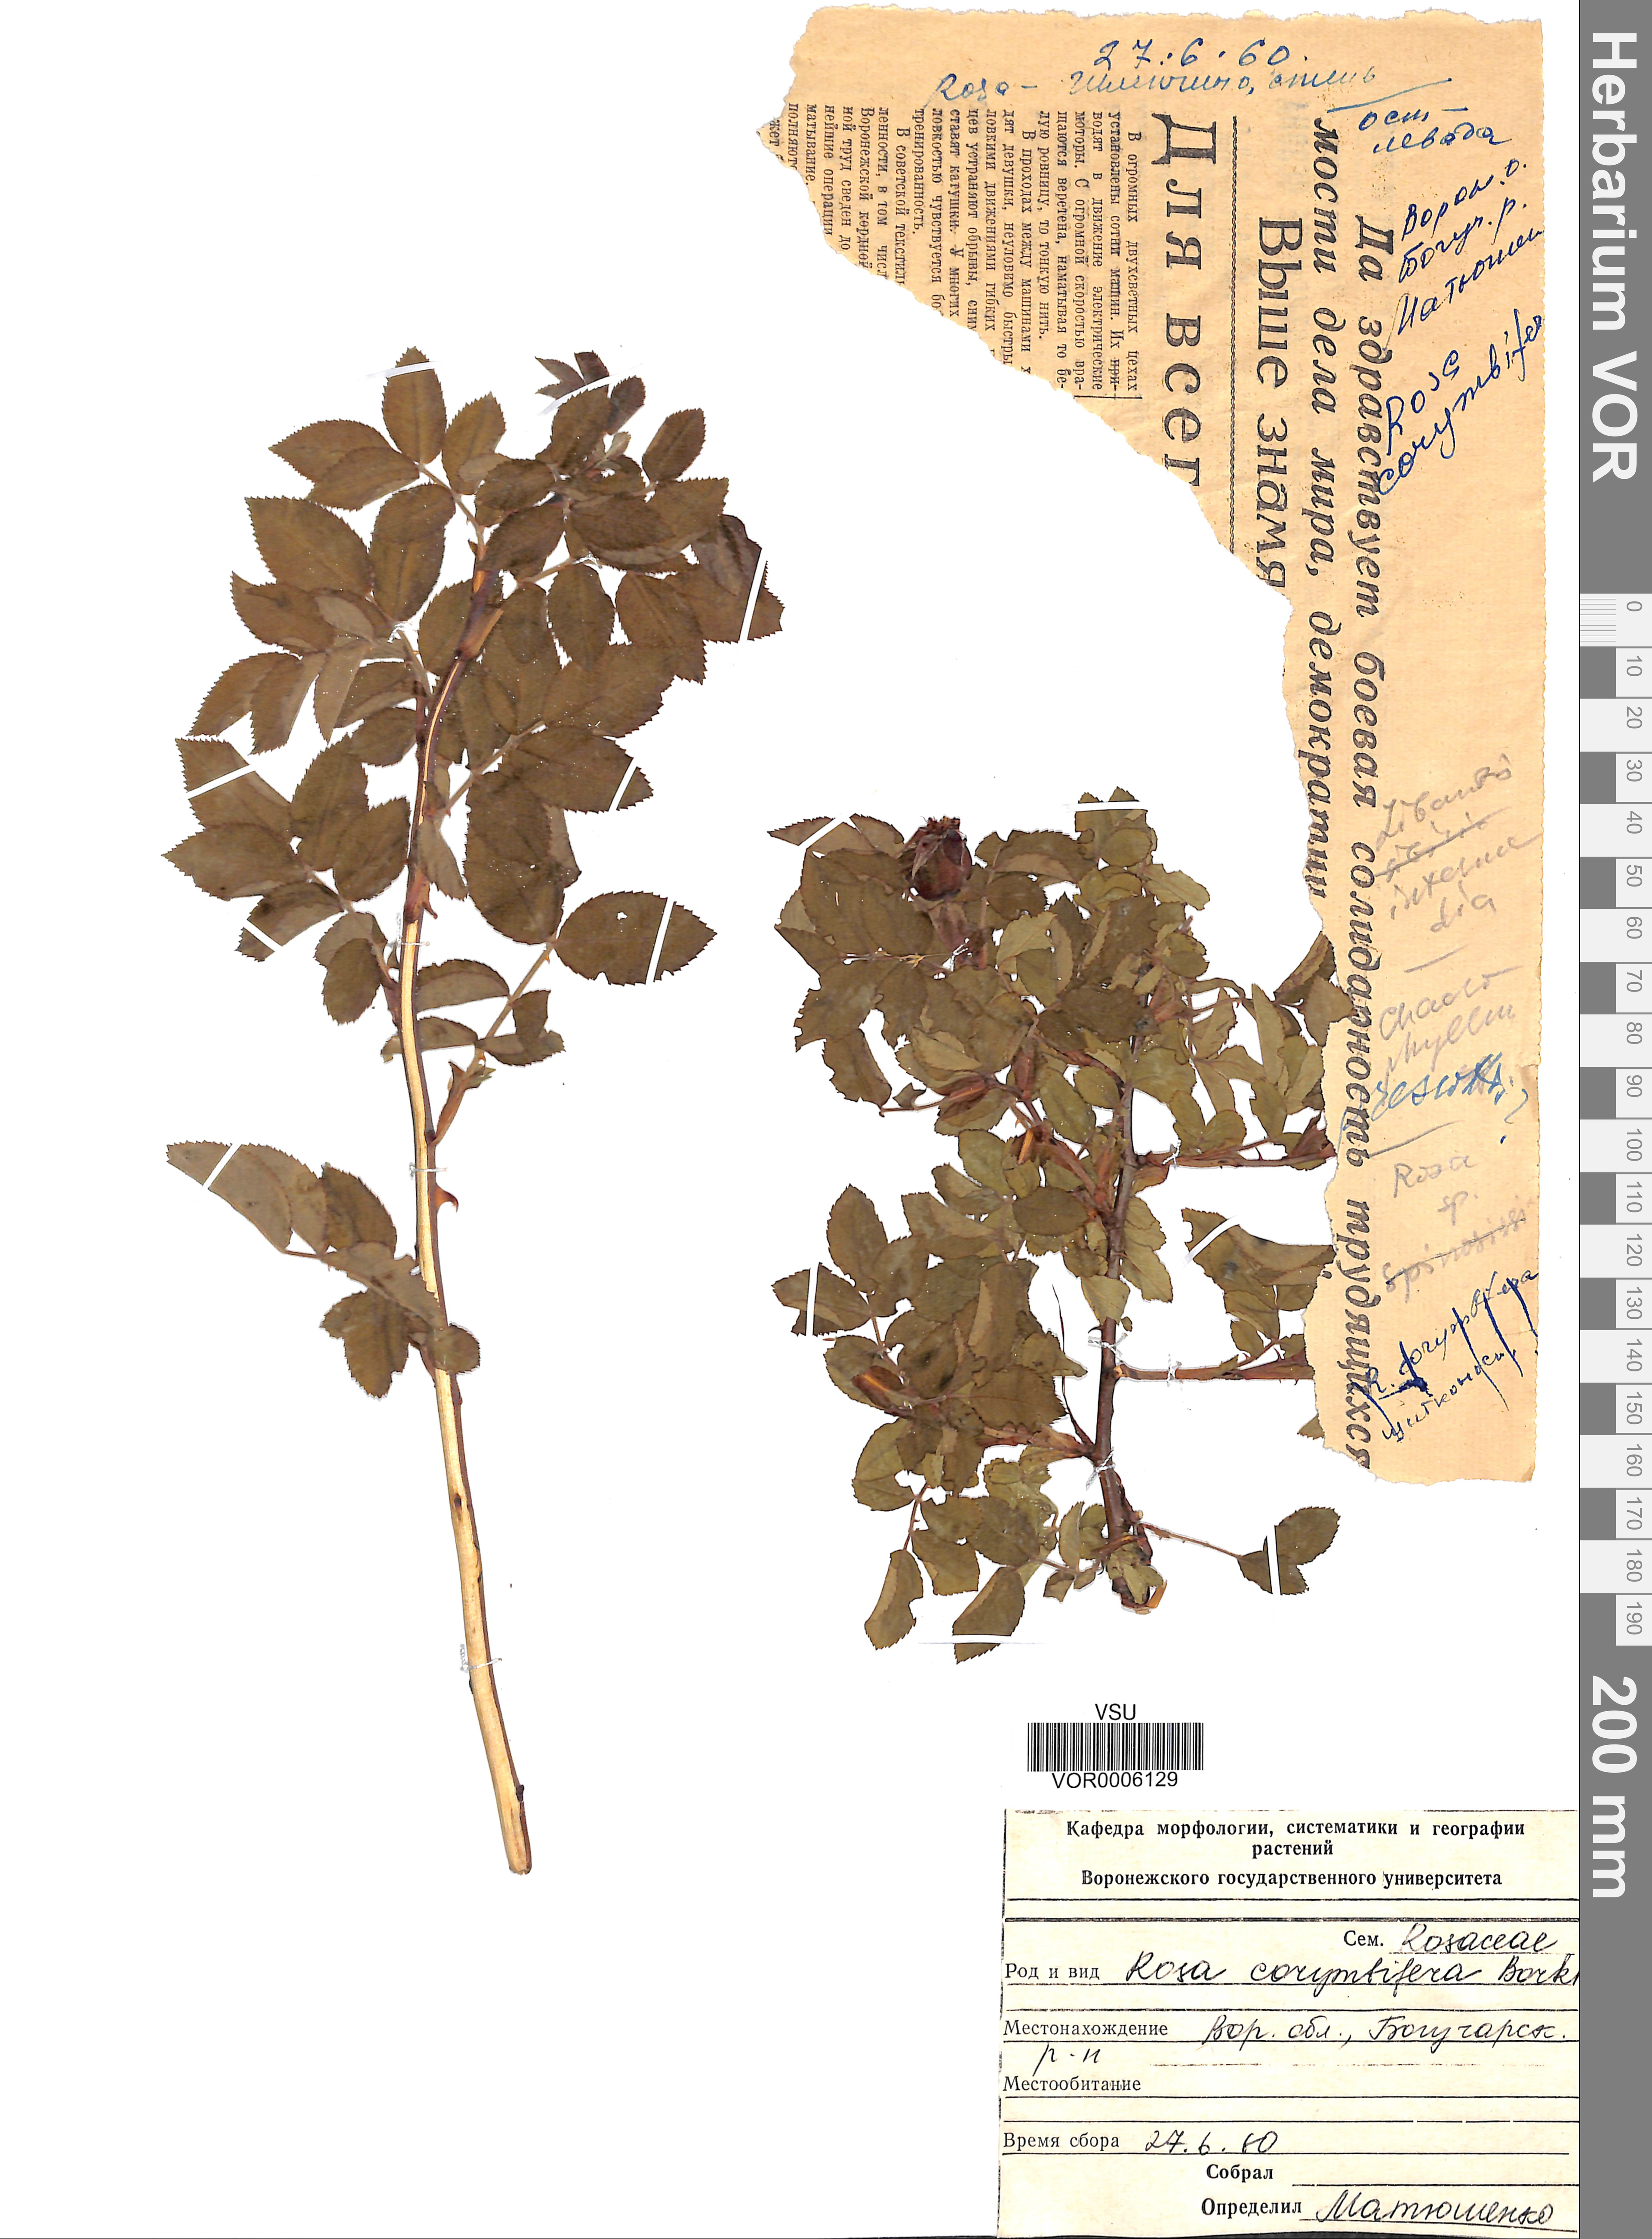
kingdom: Plantae
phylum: Tracheophyta
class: Magnoliopsida
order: Rosales
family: Rosaceae
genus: Rosa
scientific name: Rosa corymbifera
